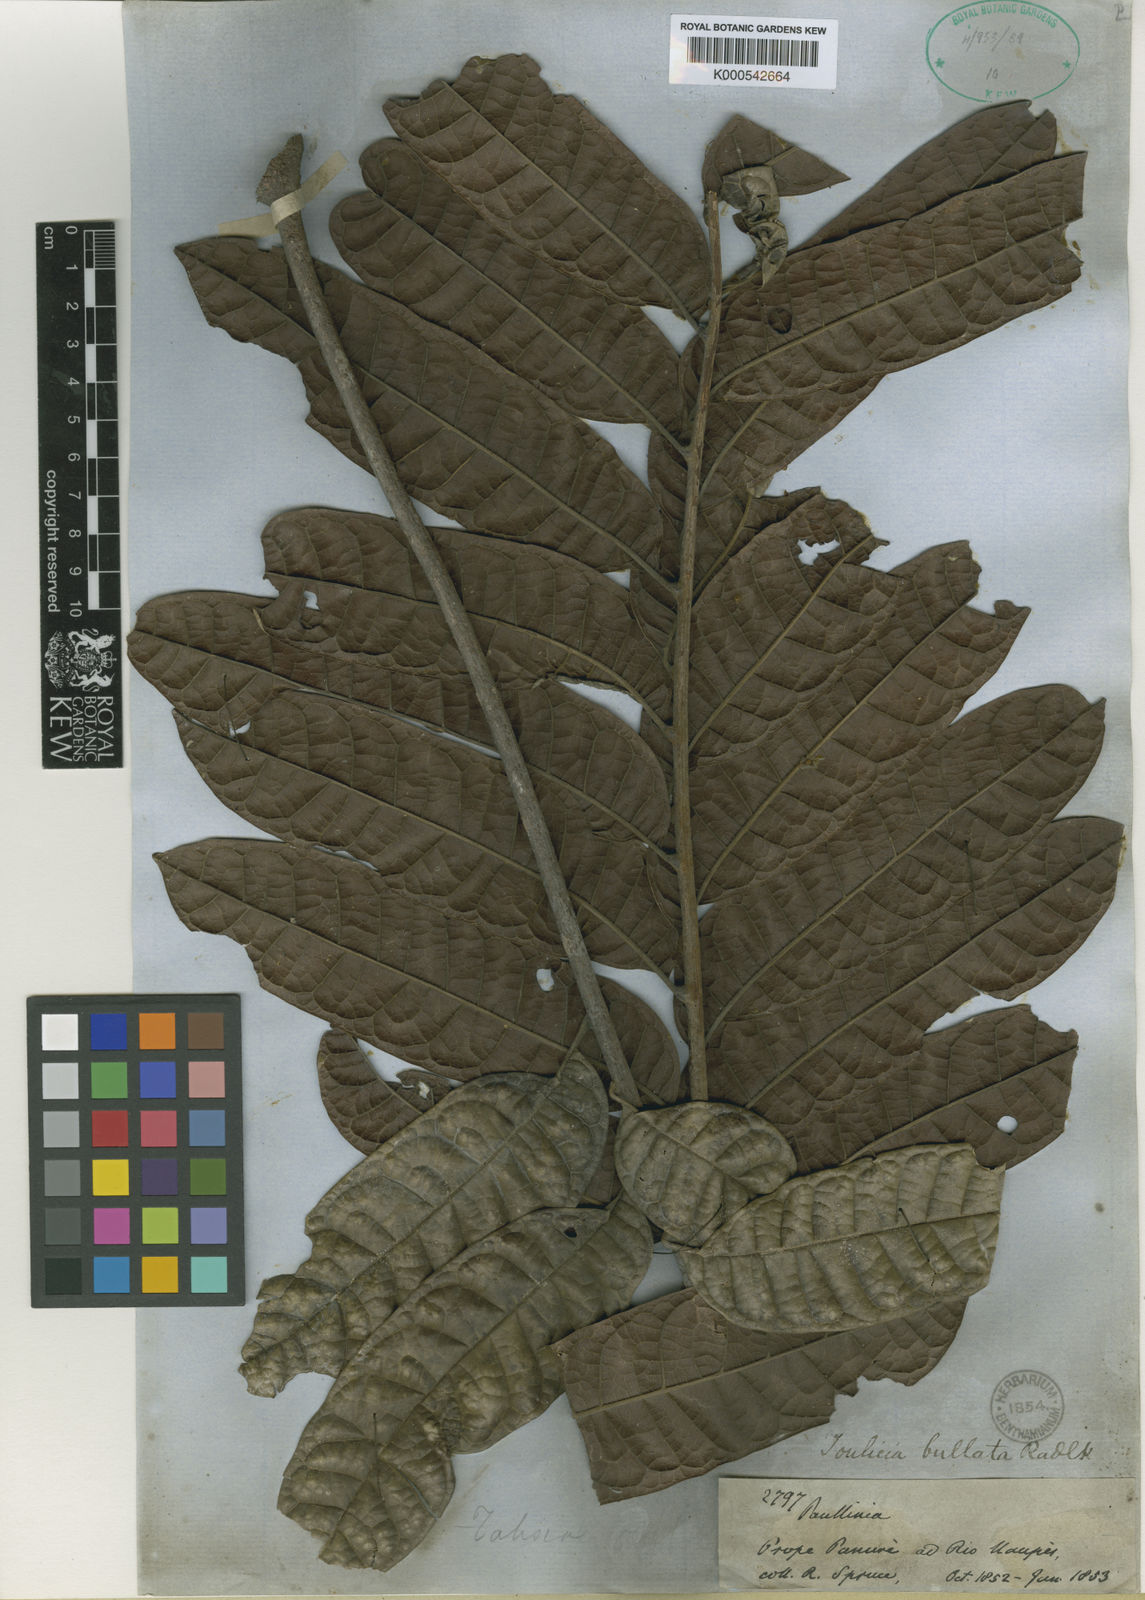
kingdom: Plantae
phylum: Tracheophyta
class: Magnoliopsida
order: Sapindales
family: Sapindaceae
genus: Toulicia
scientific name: Toulicia bullata
